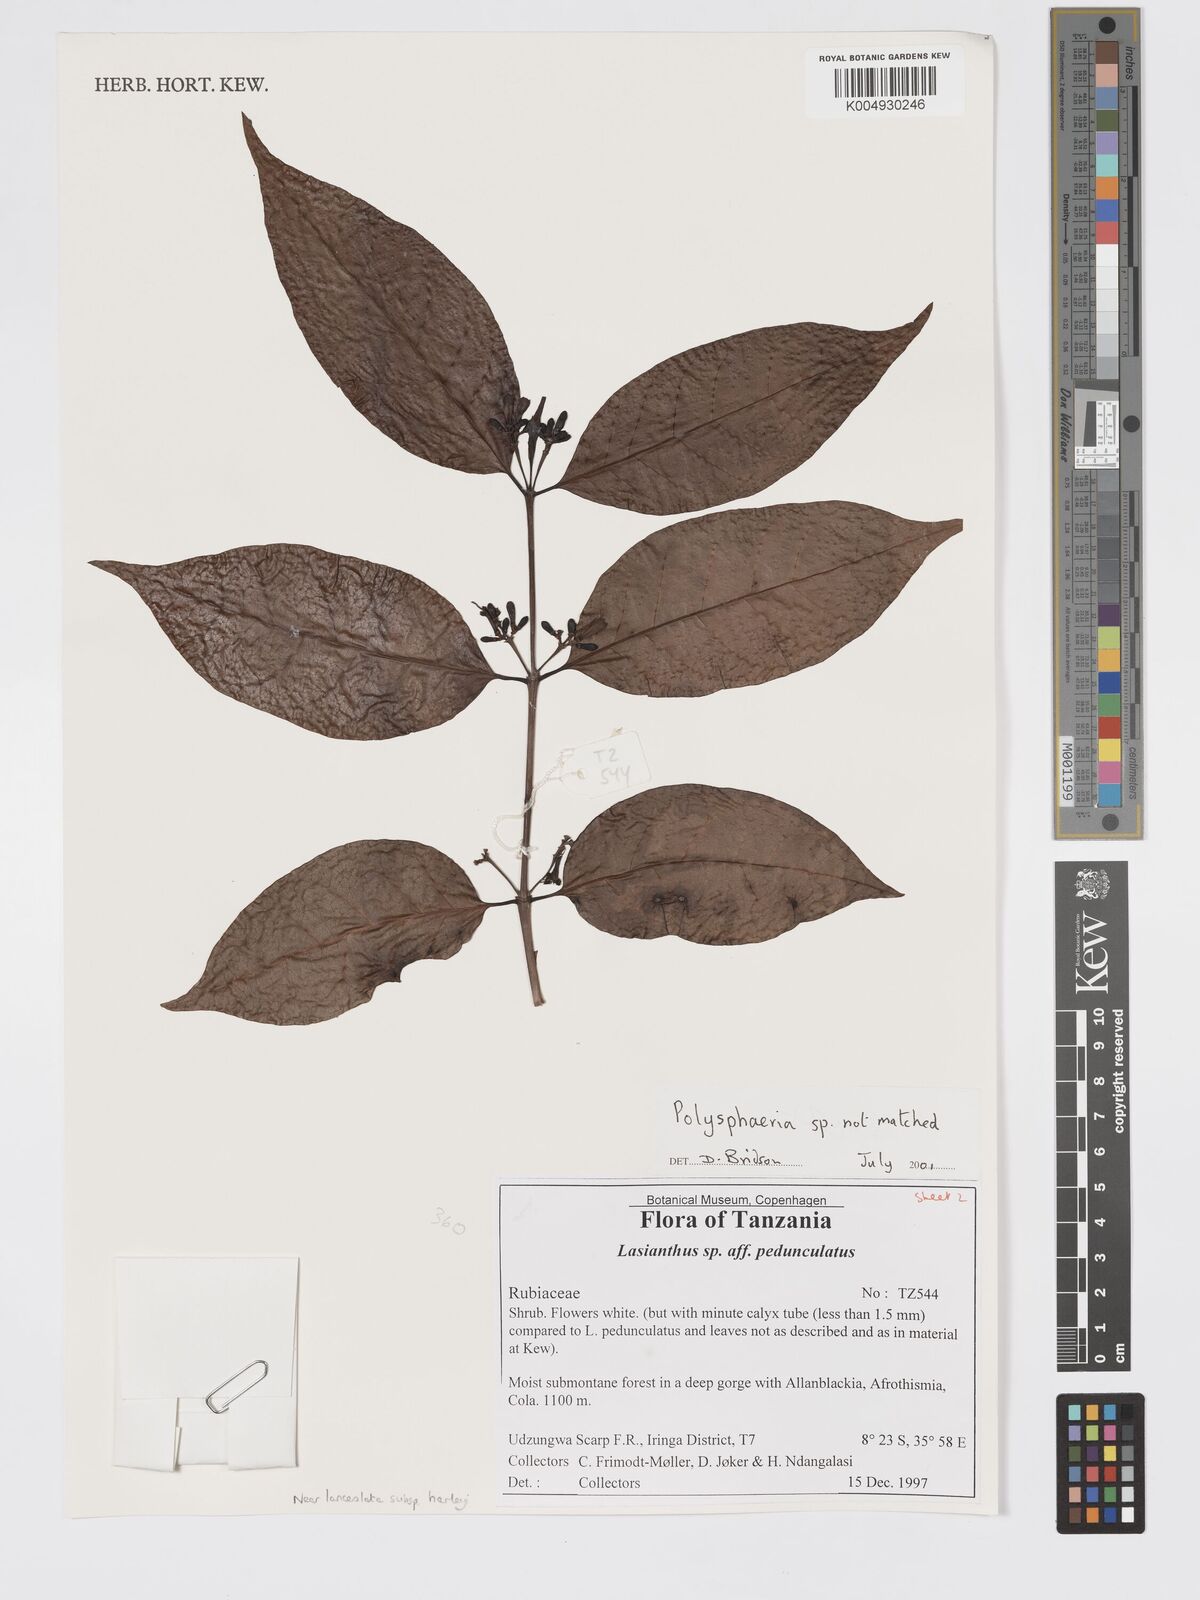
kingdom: Plantae
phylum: Tracheophyta
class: Magnoliopsida
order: Gentianales
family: Rubiaceae
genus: Polysphaeria
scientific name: Polysphaeria lanceolata
